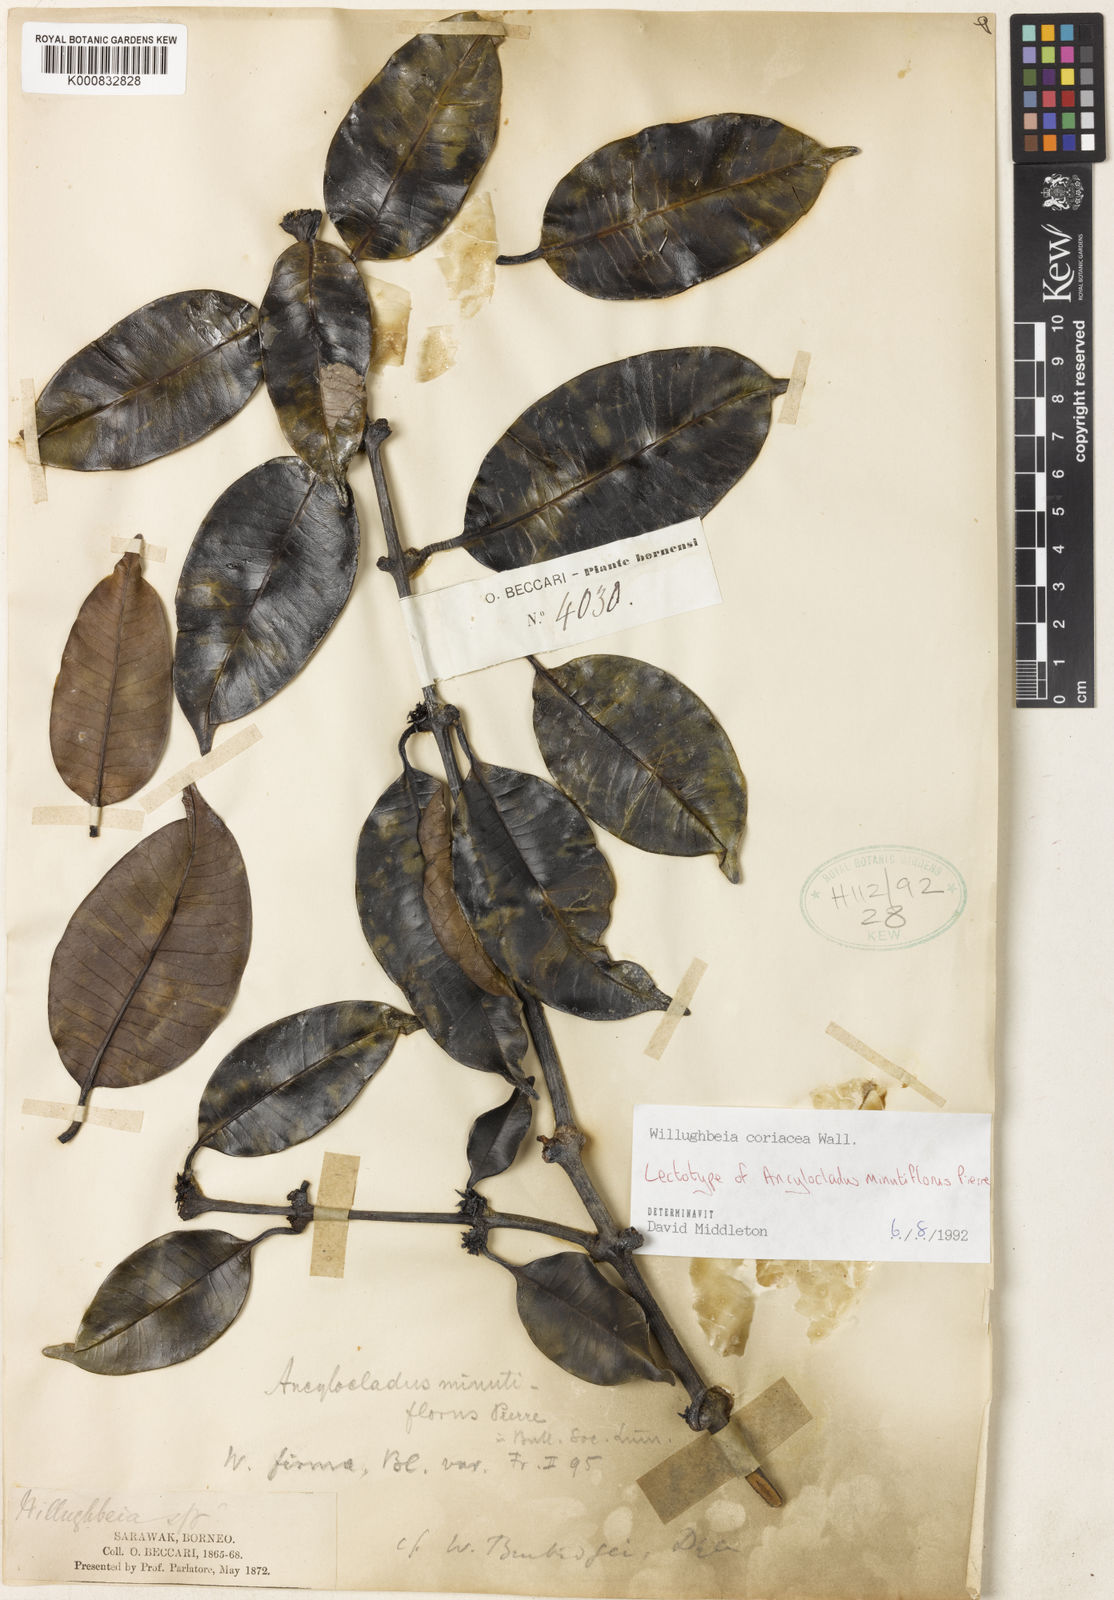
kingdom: Plantae
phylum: Tracheophyta
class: Magnoliopsida
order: Gentianales
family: Apocynaceae
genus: Willughbeia
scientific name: Willughbeia coriacea
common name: Borneo-rubber
